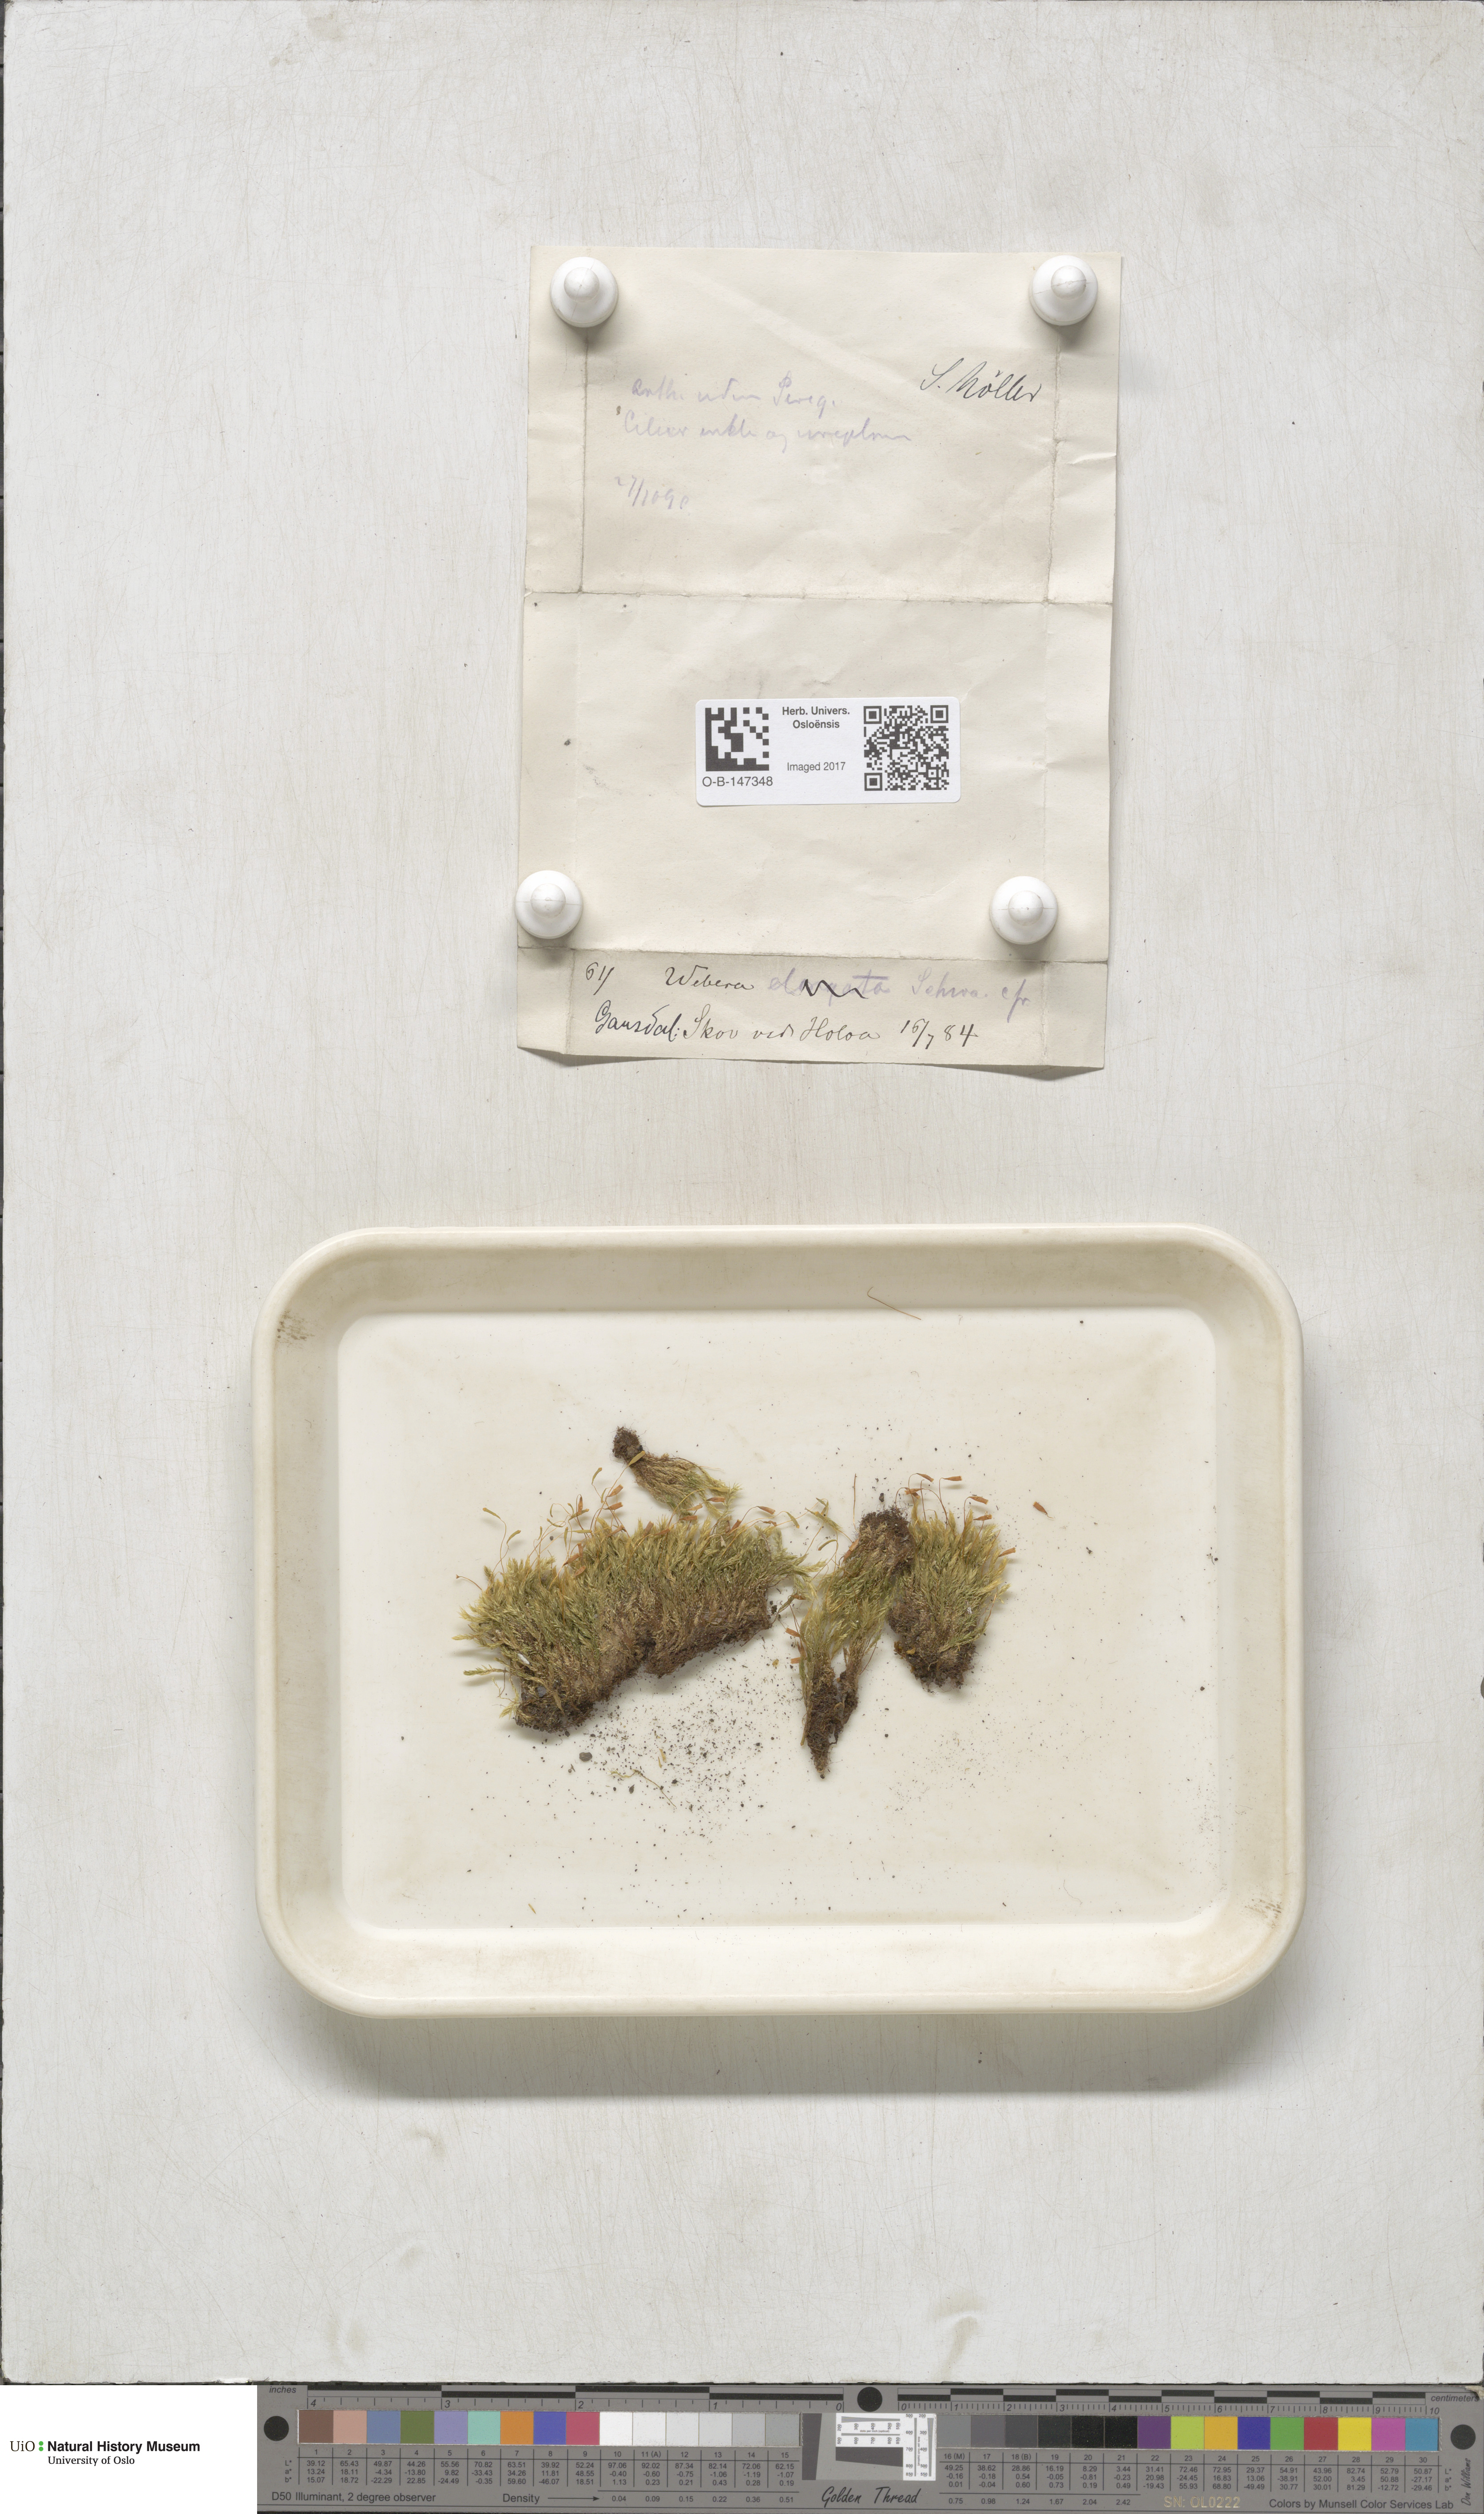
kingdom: Plantae
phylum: Bryophyta
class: Bryopsida
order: Bryales
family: Mniaceae
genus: Pohlia
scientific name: Pohlia
